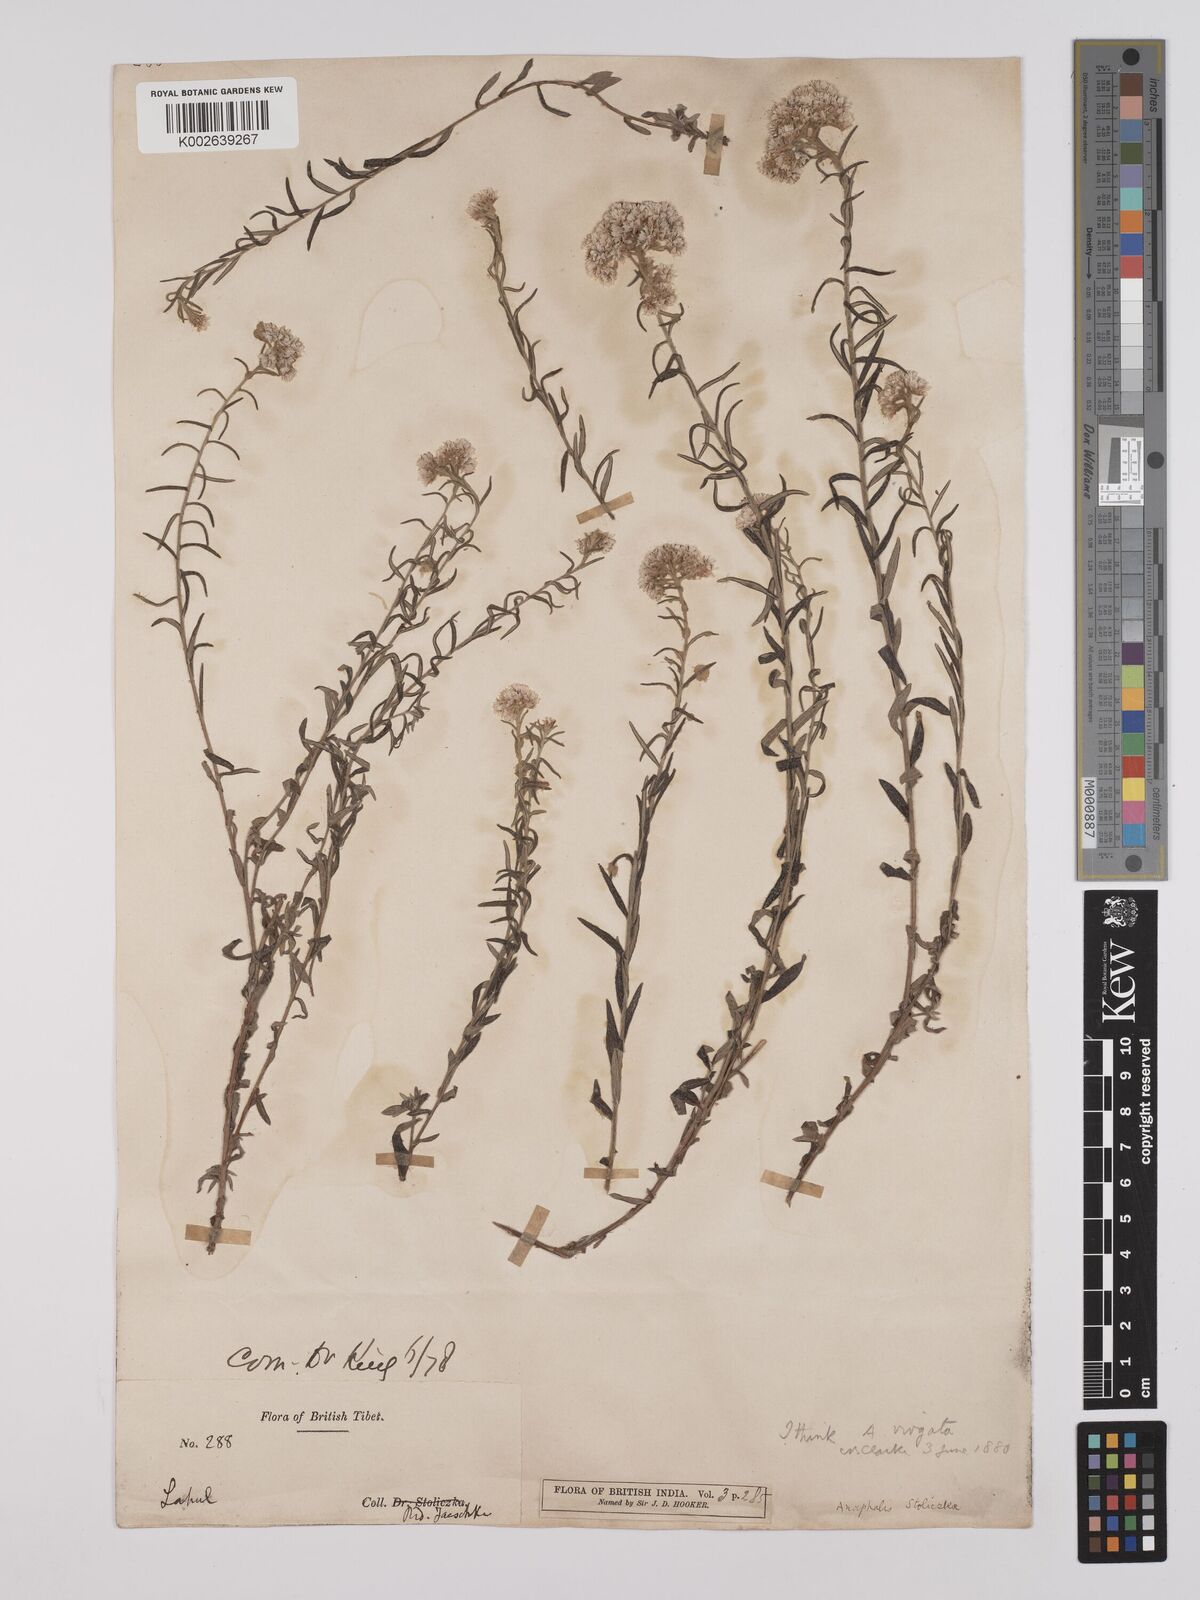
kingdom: Plantae
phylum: Tracheophyta
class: Magnoliopsida
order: Asterales
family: Asteraceae
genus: Anaphalis
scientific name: Anaphalis virgata
